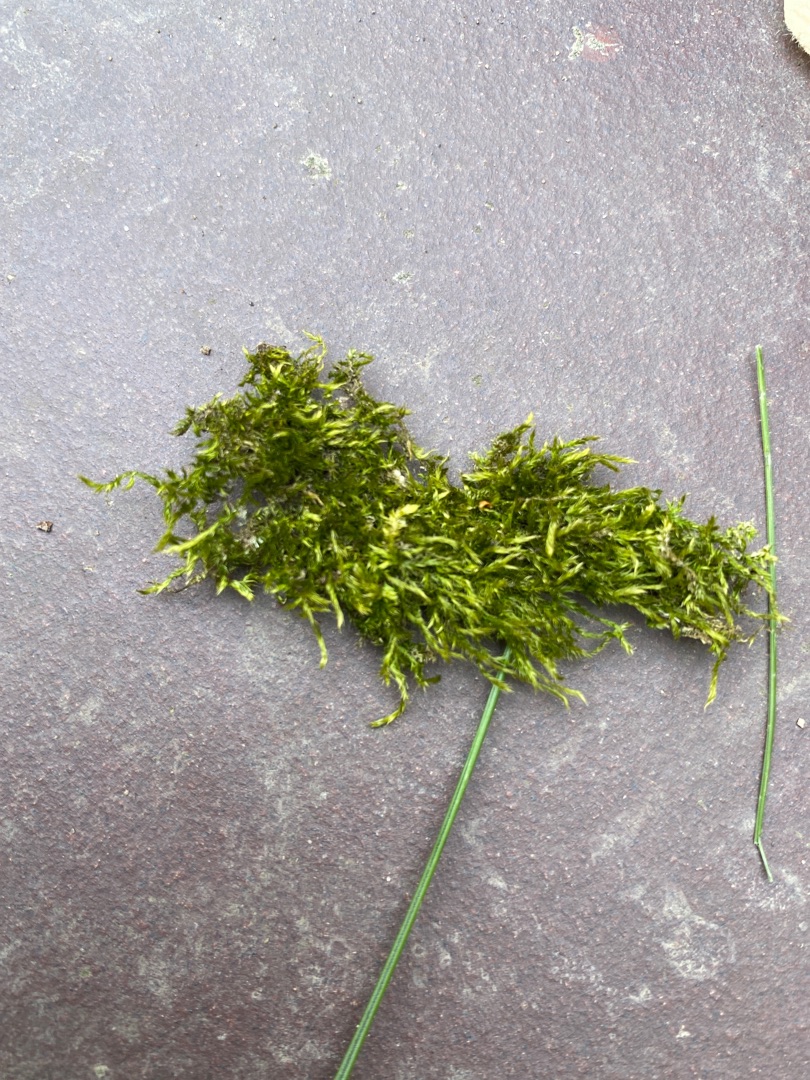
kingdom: Plantae
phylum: Bryophyta
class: Bryopsida
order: Hypnales
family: Hypnaceae
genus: Hypnum
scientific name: Hypnum
